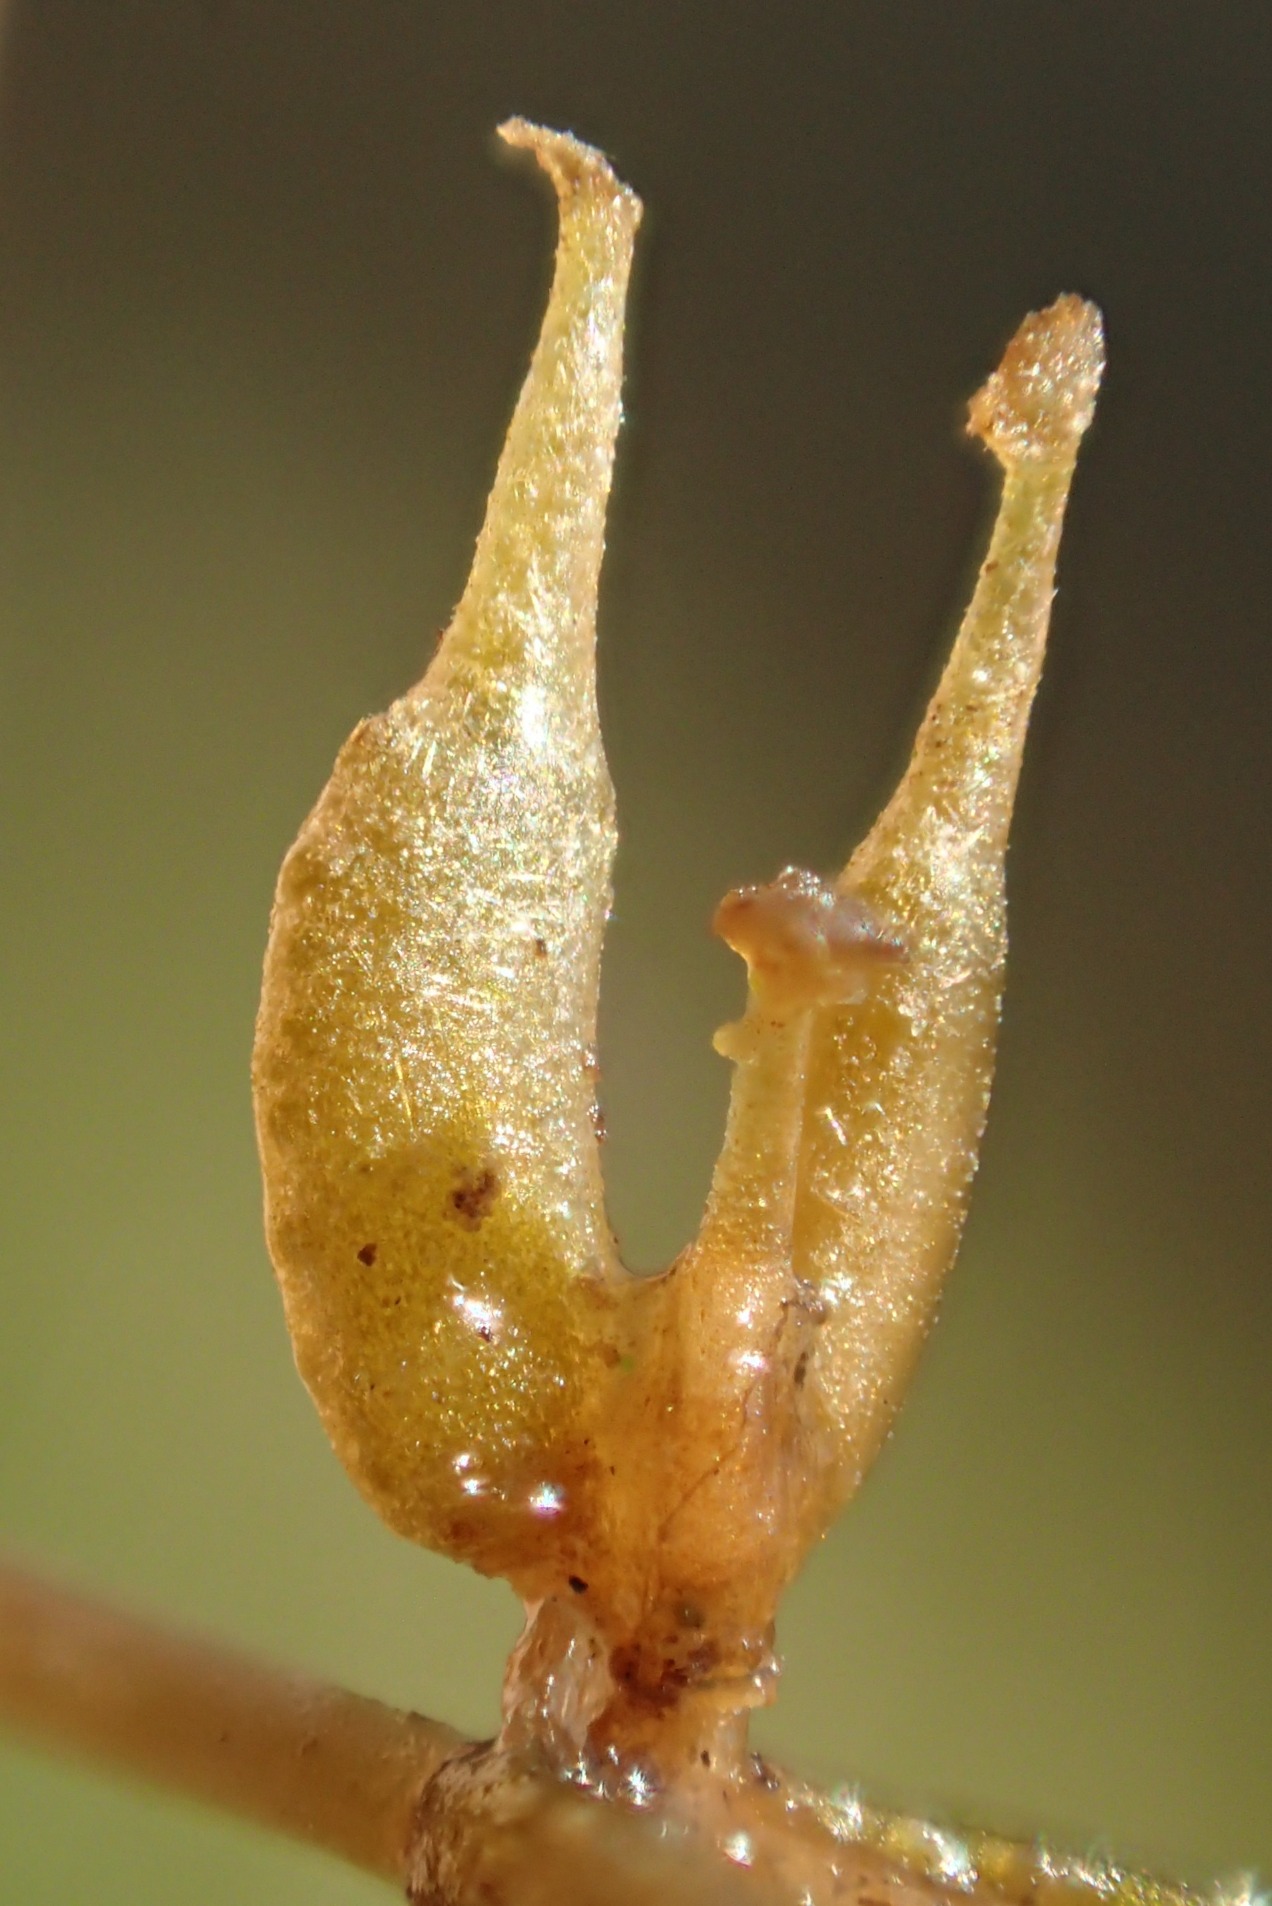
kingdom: Plantae
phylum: Tracheophyta
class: Liliopsida
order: Alismatales
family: Potamogetonaceae
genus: Zannichellia
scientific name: Zannichellia palustris
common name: Stilket vandkrans
